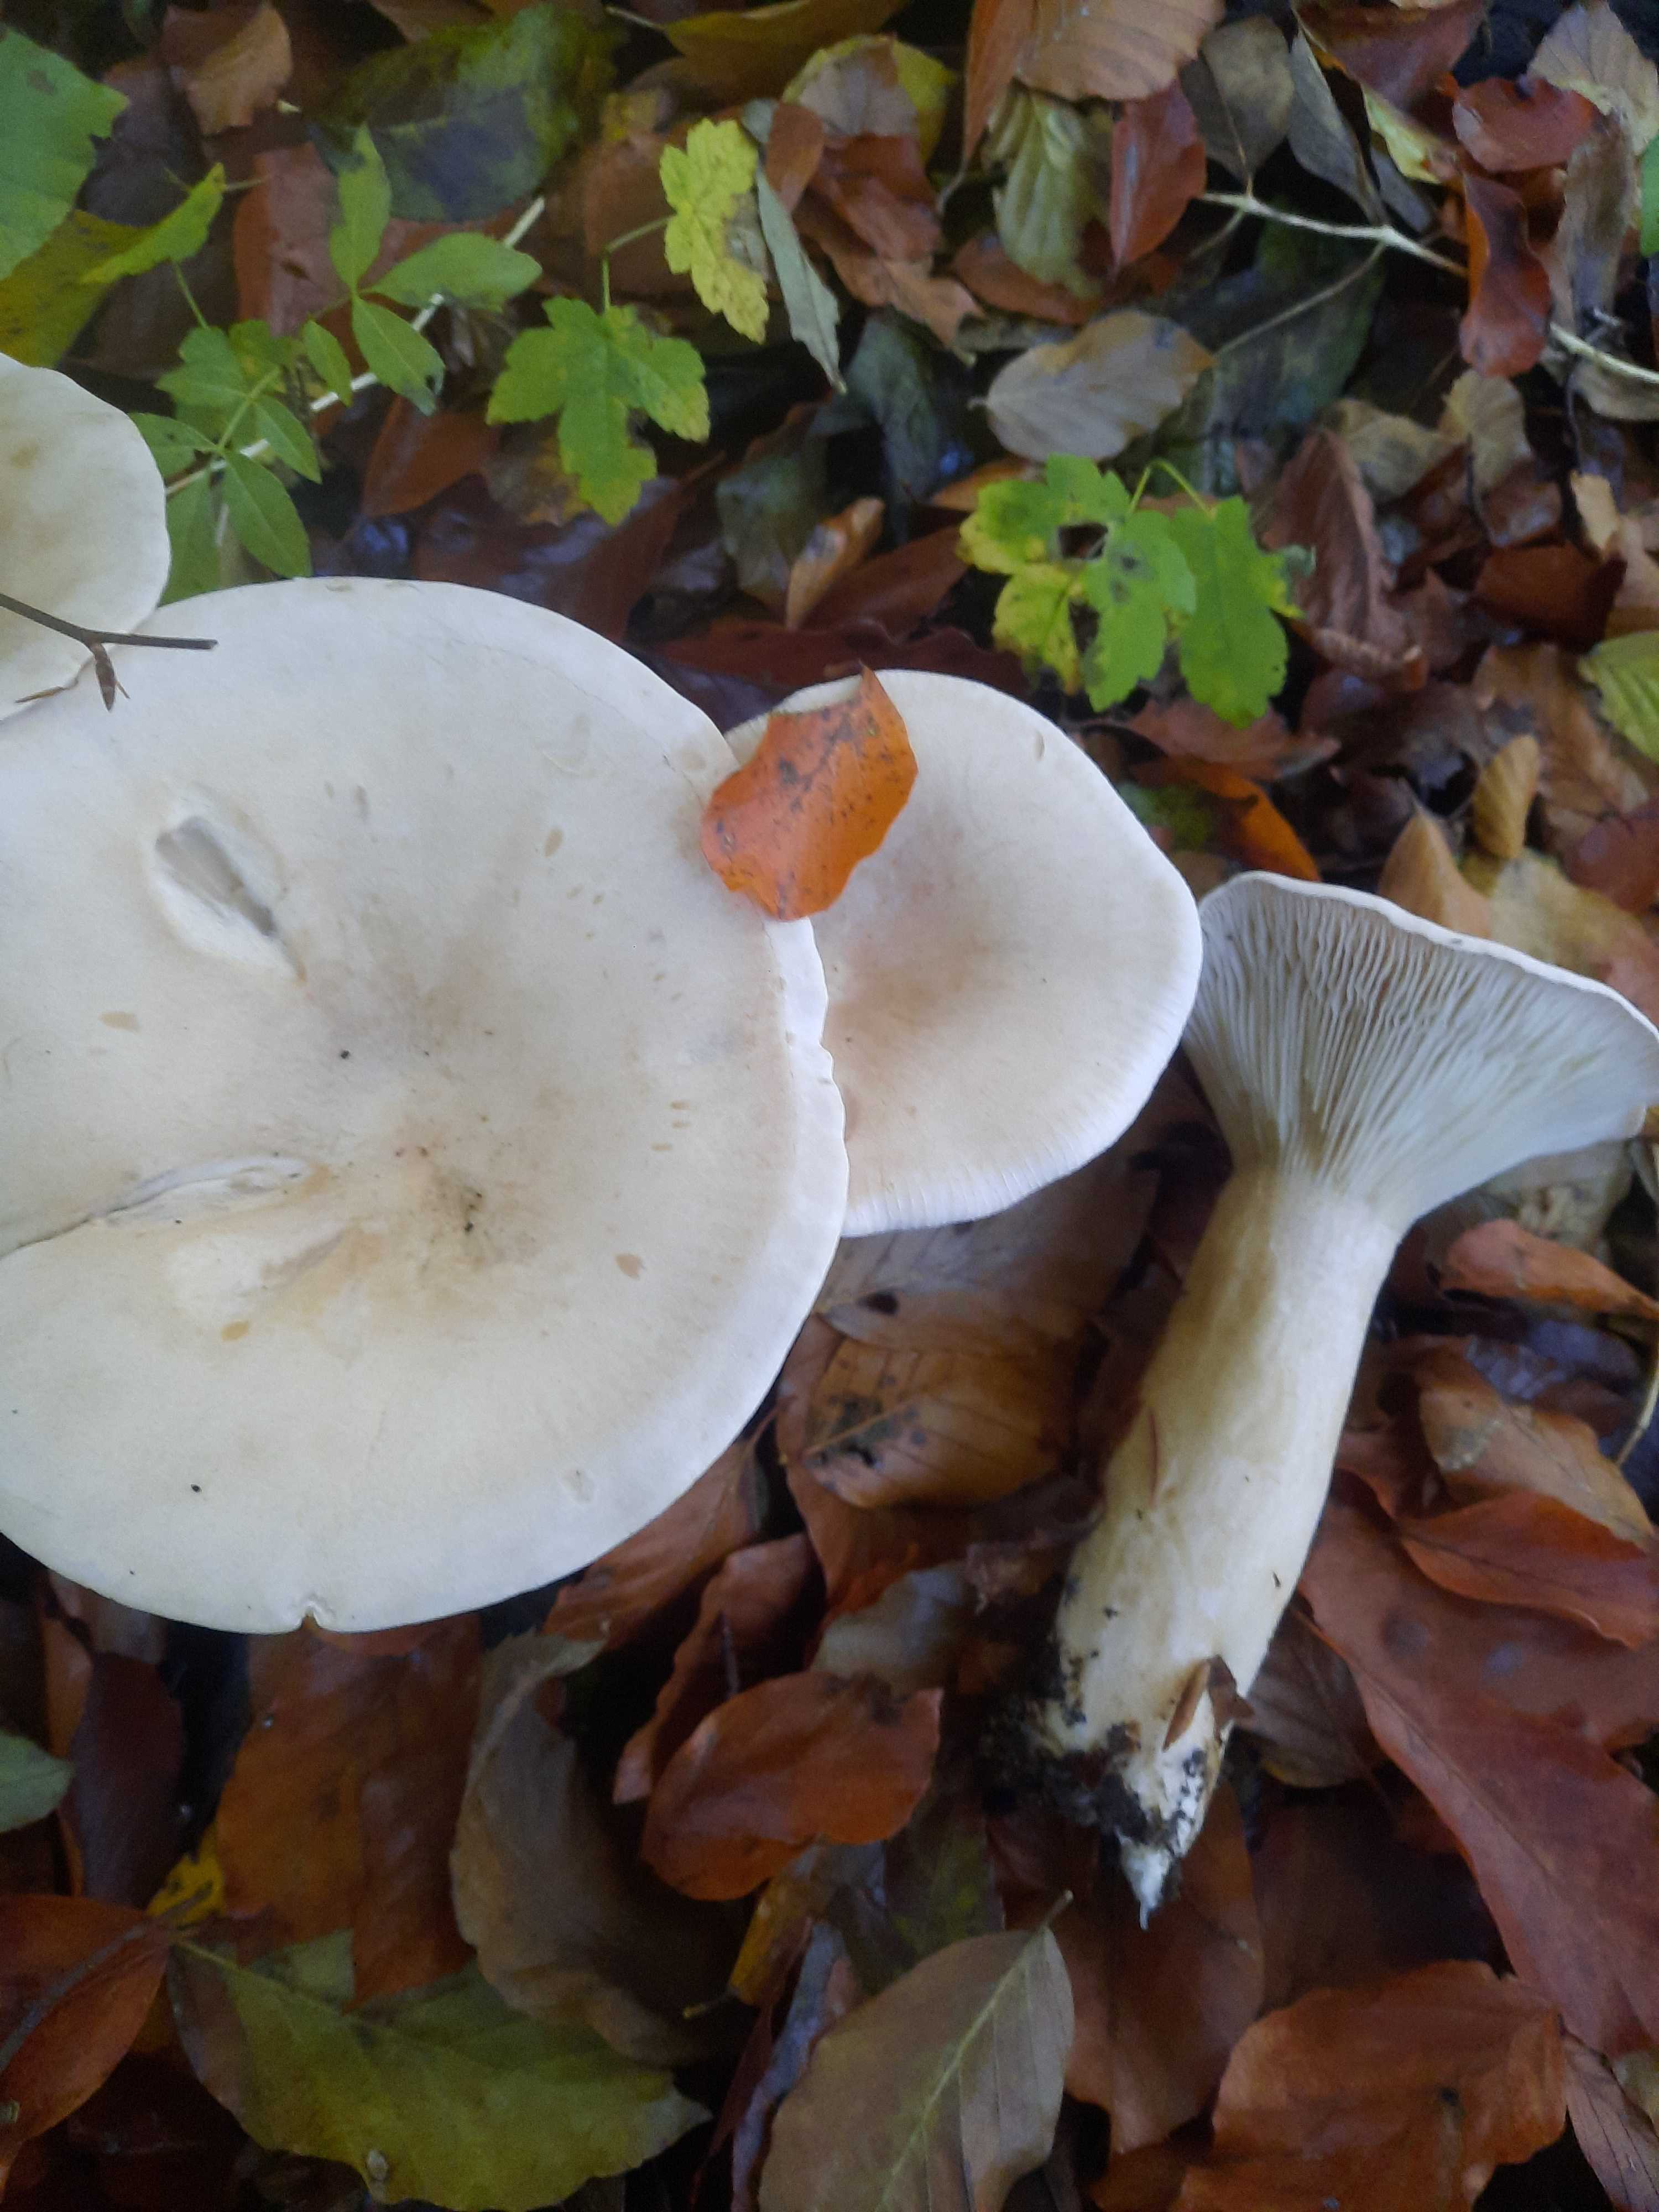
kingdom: Fungi
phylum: Basidiomycota
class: Agaricomycetes
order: Agaricales
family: Tricholomataceae
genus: Infundibulicybe
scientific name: Infundibulicybe geotropa
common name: stor tragthat
